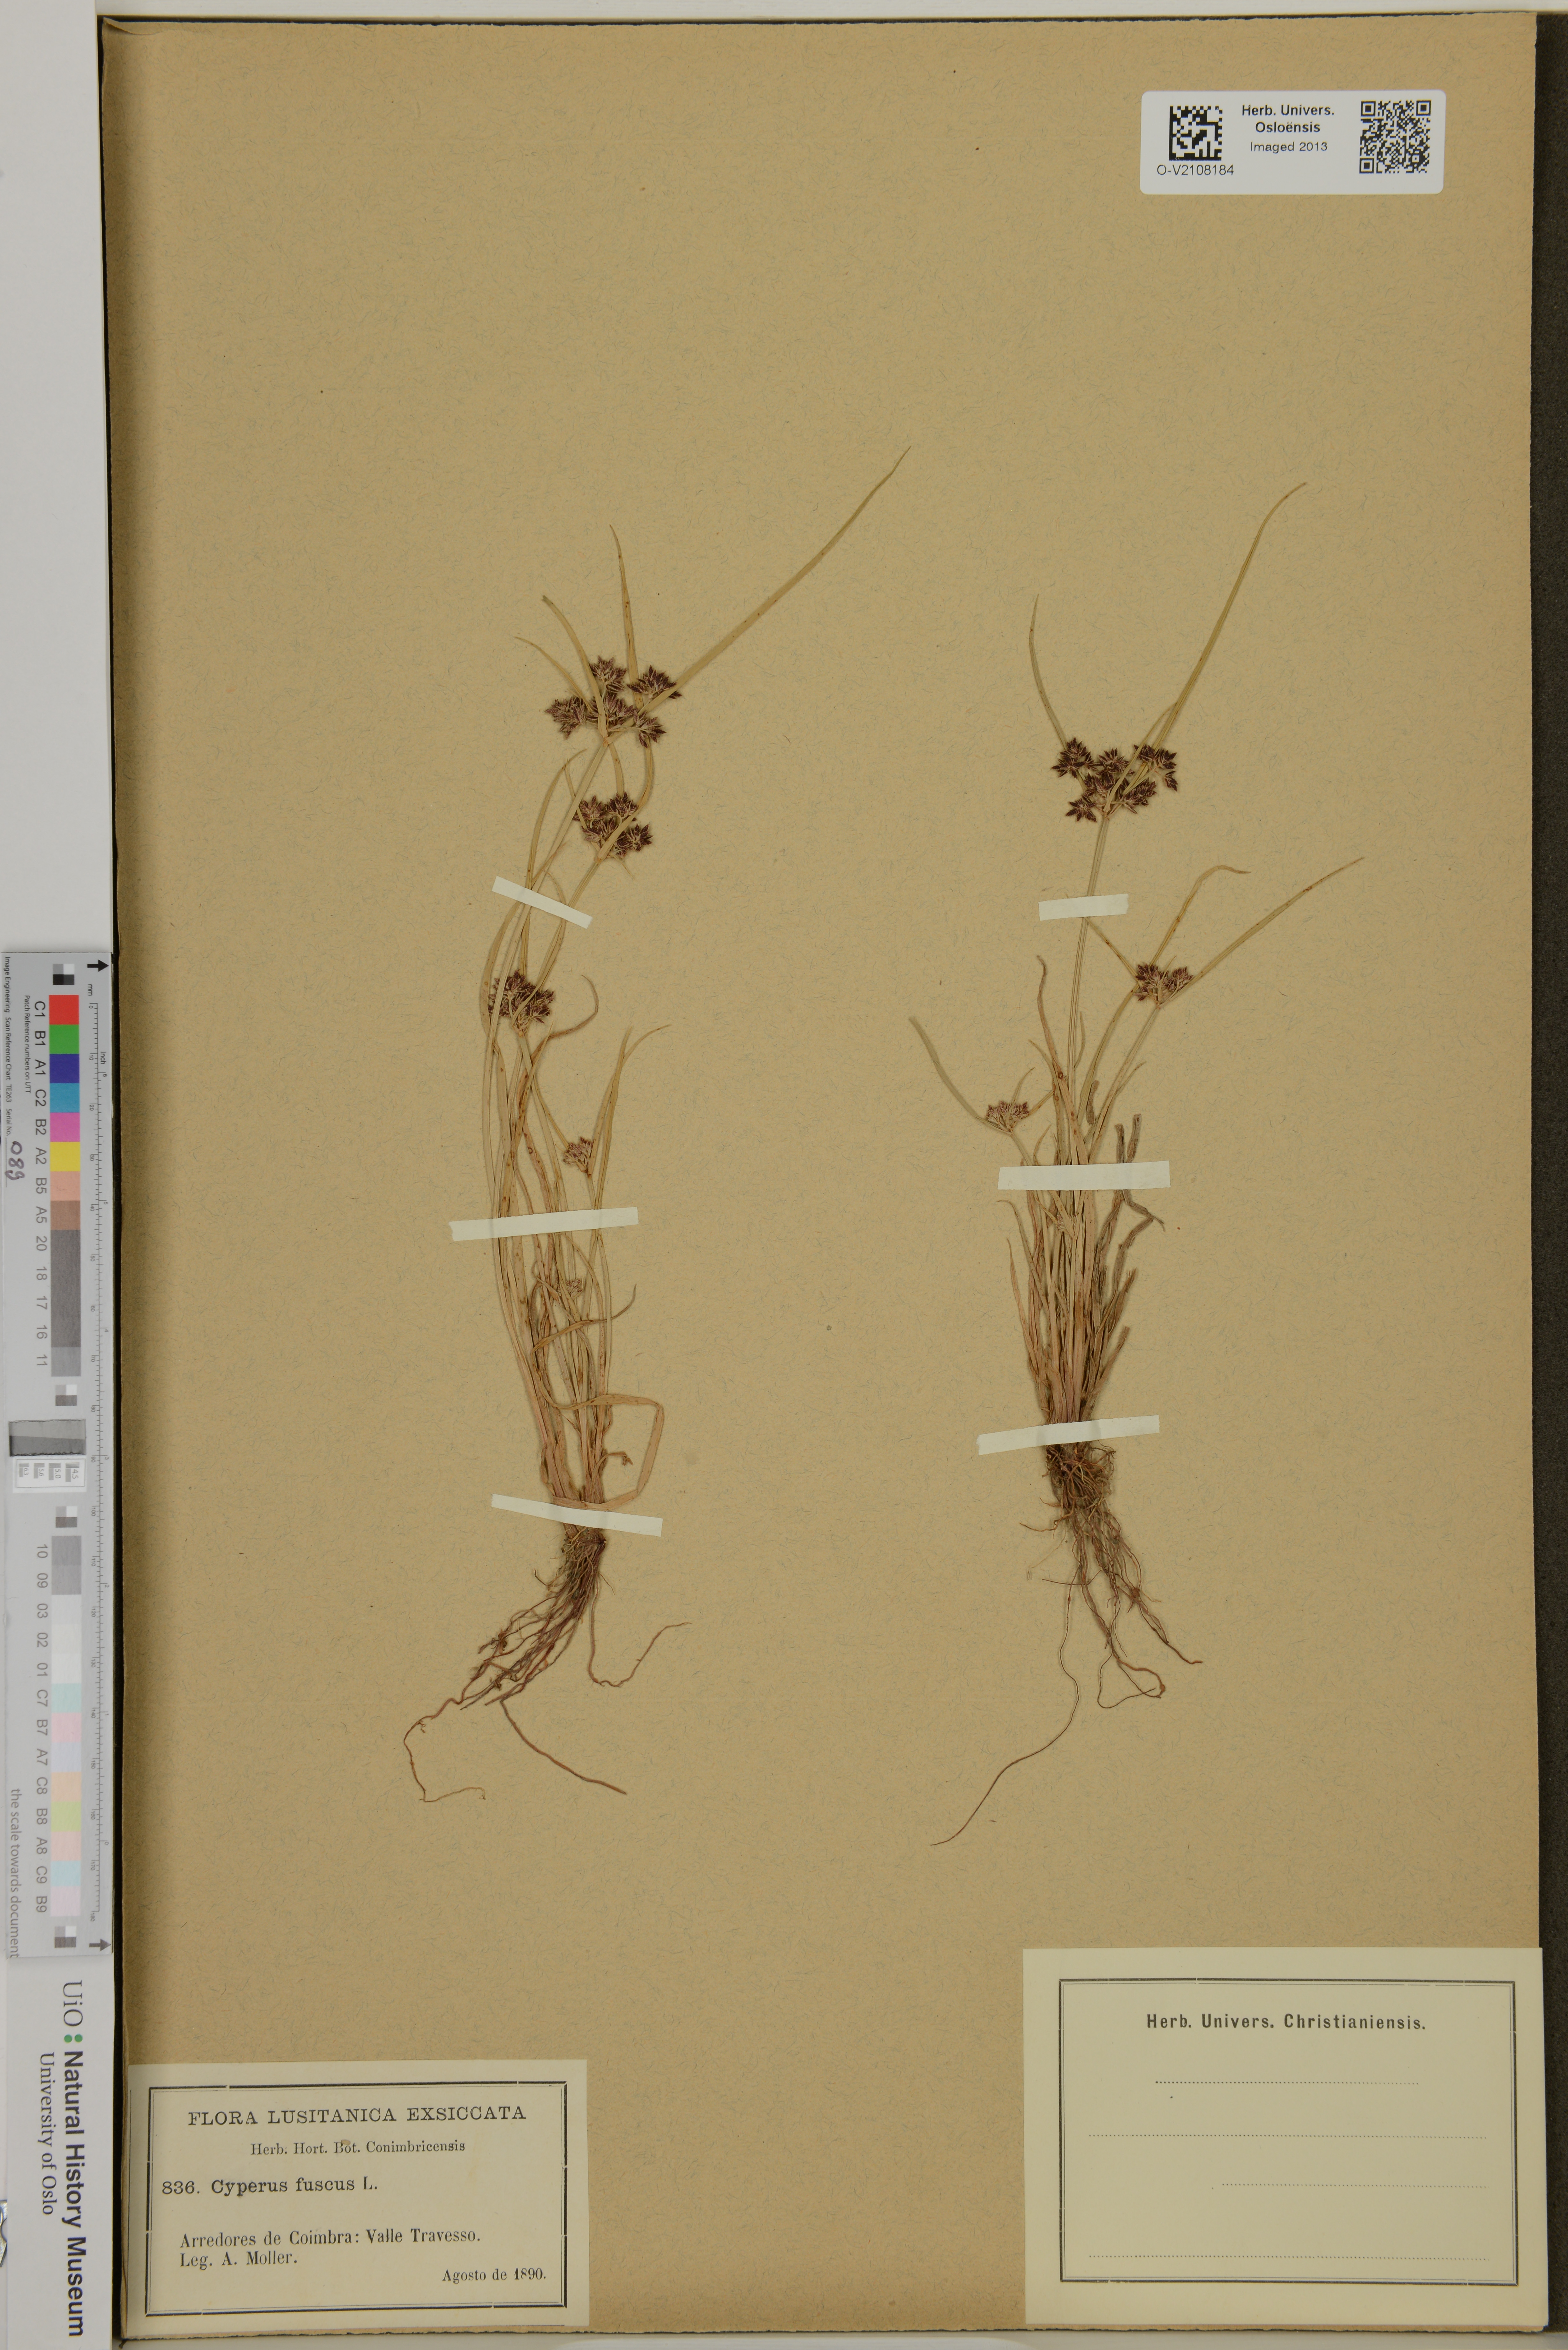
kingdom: Plantae
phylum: Tracheophyta
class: Liliopsida
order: Poales
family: Cyperaceae
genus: Cyperus
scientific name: Cyperus fuscus
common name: Brown galingale
